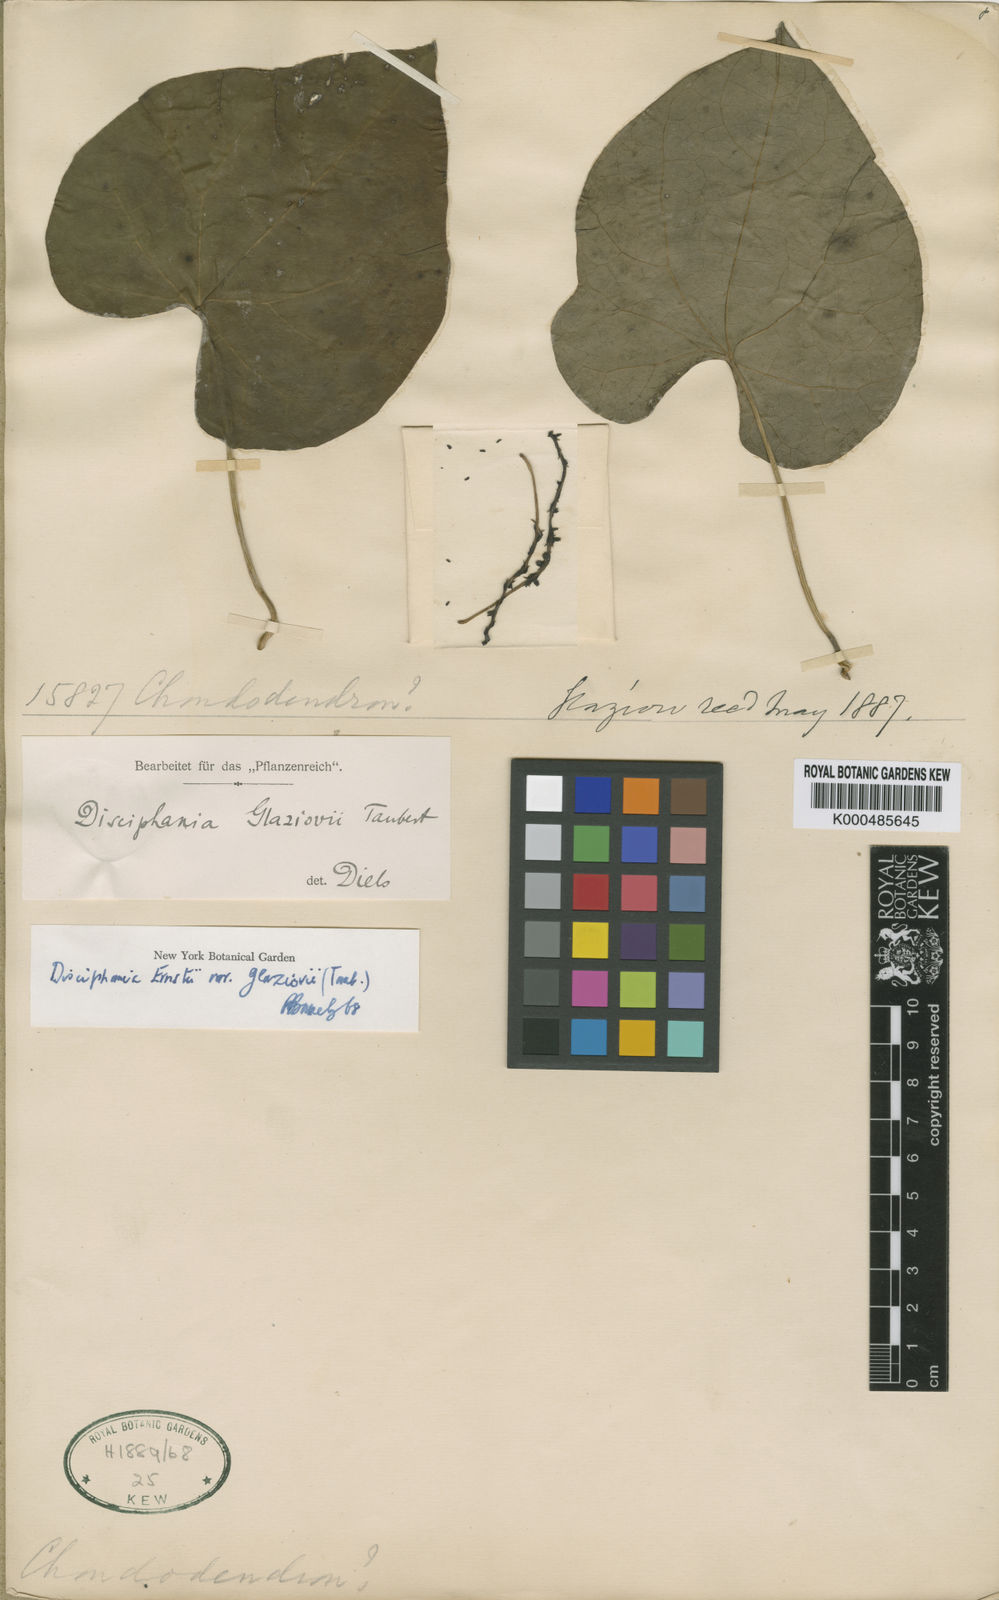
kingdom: Plantae
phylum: Tracheophyta
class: Magnoliopsida
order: Ranunculales
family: Menispermaceae
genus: Disciphania
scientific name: Disciphania ernstii
